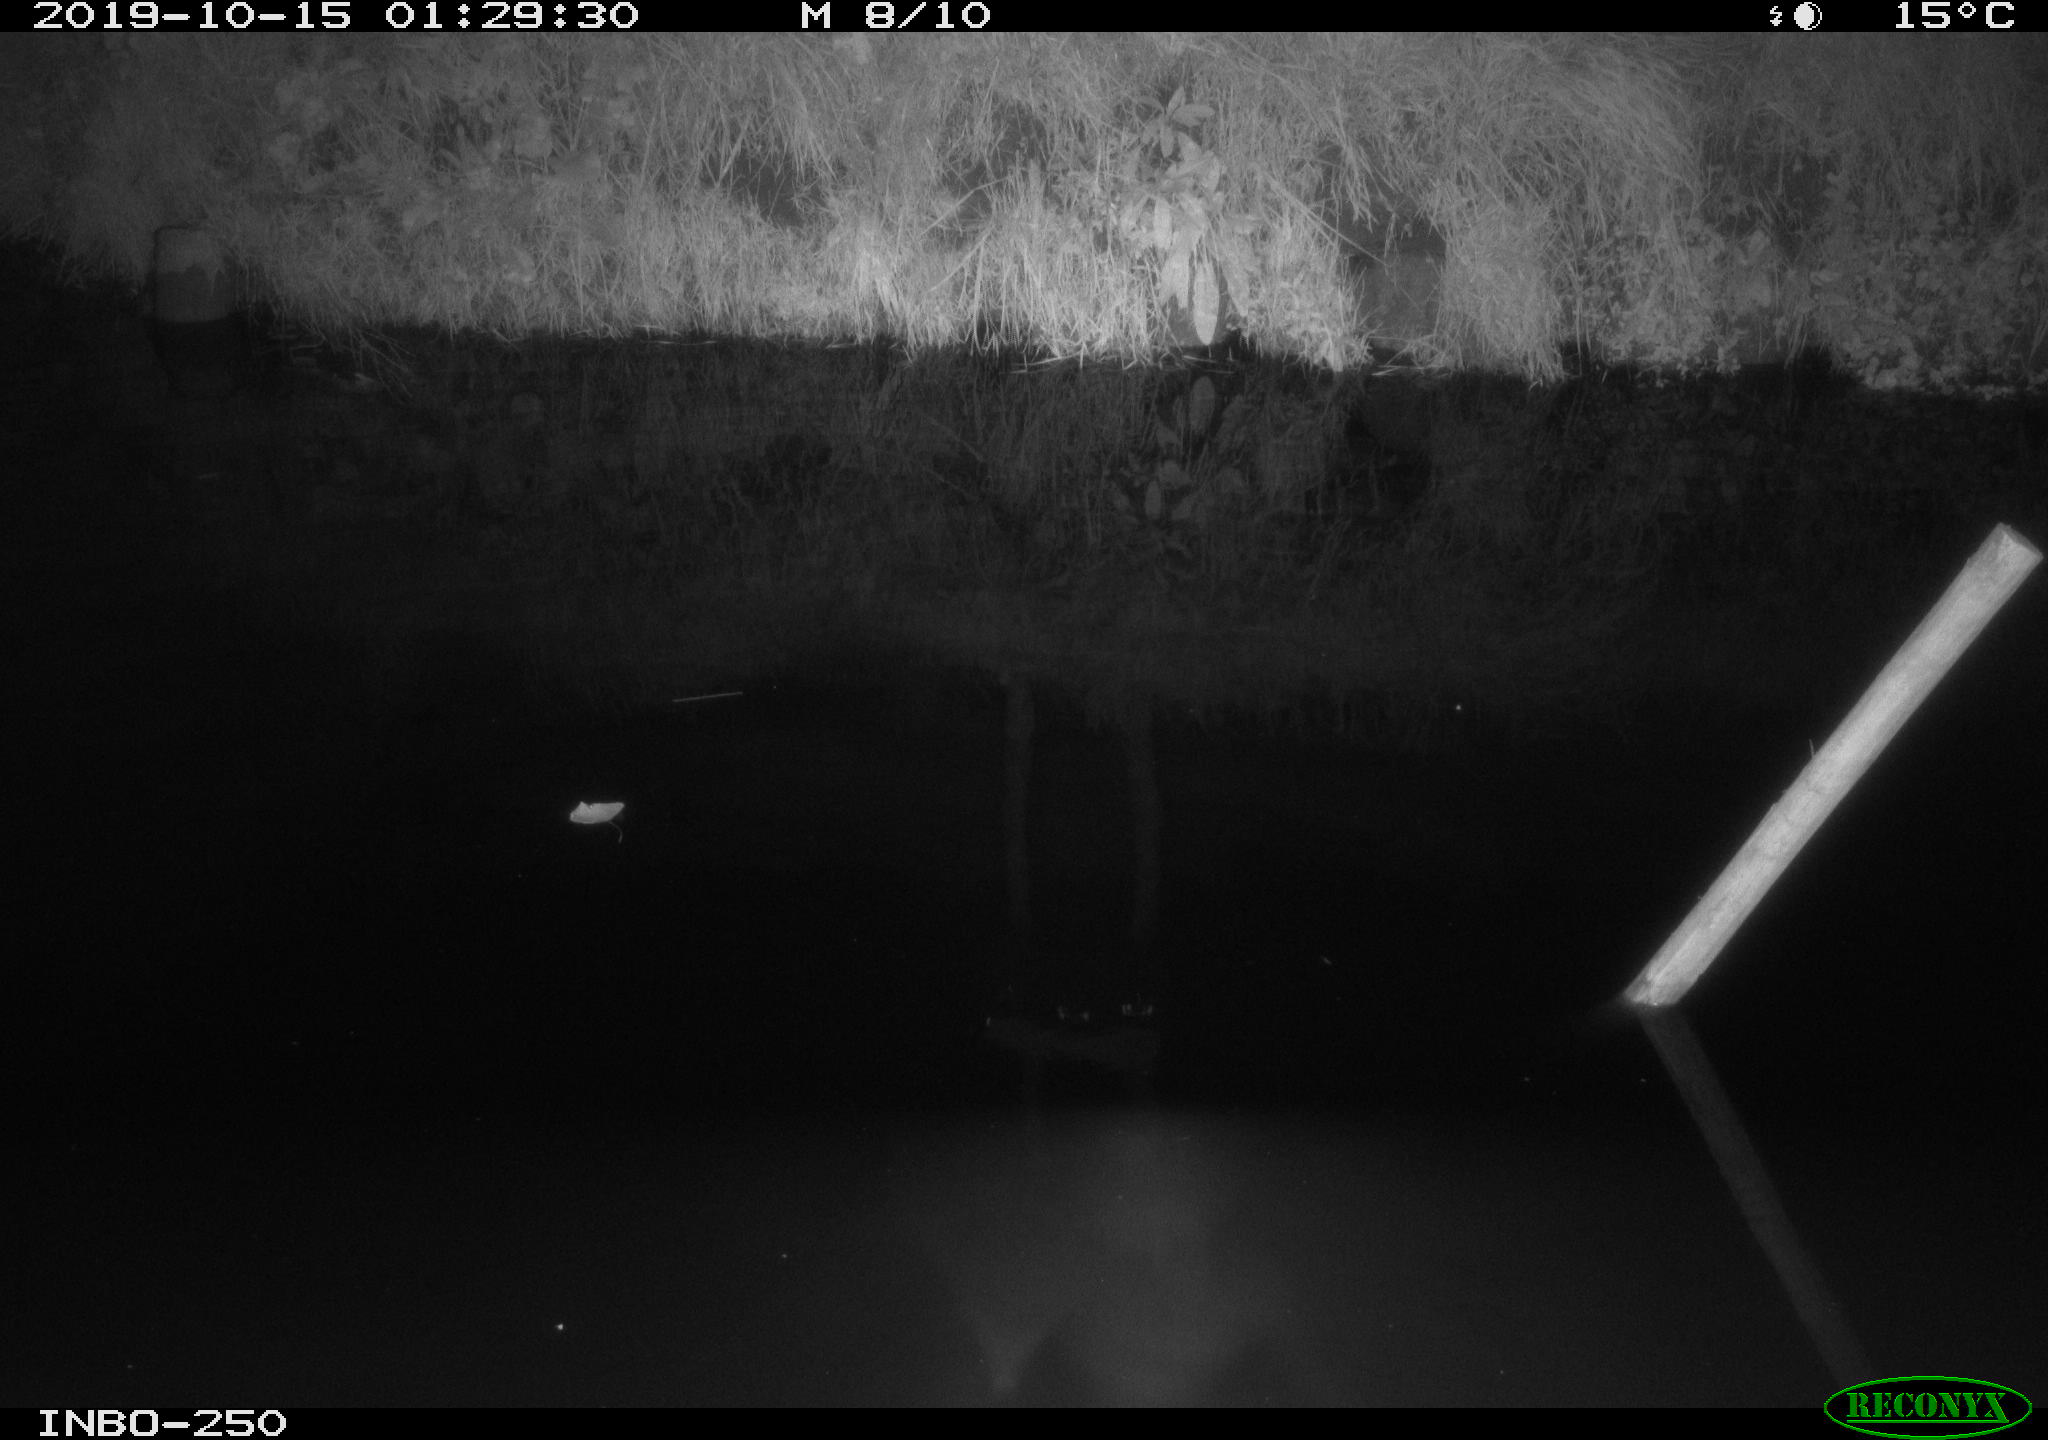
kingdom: Animalia
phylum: Chordata
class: Aves
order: Anseriformes
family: Anatidae
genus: Anas
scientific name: Anas platyrhynchos
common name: Mallard
